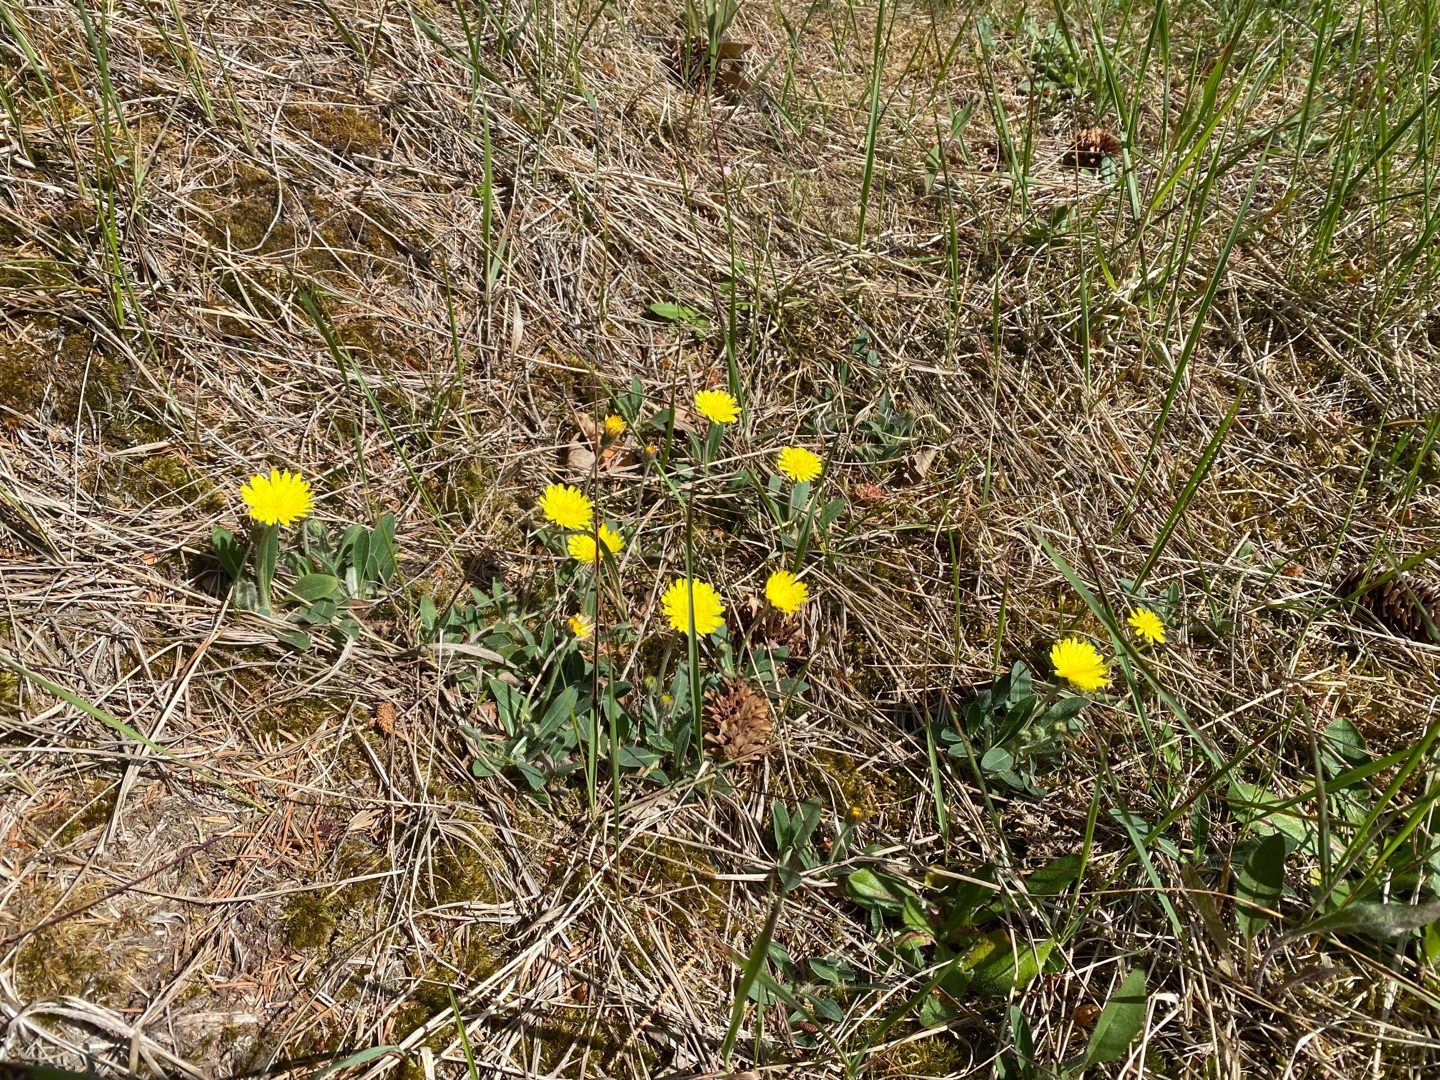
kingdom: Plantae
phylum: Tracheophyta
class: Magnoliopsida
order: Asterales
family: Asteraceae
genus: Pilosella
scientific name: Pilosella officinarum
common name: Håret høgeurt
